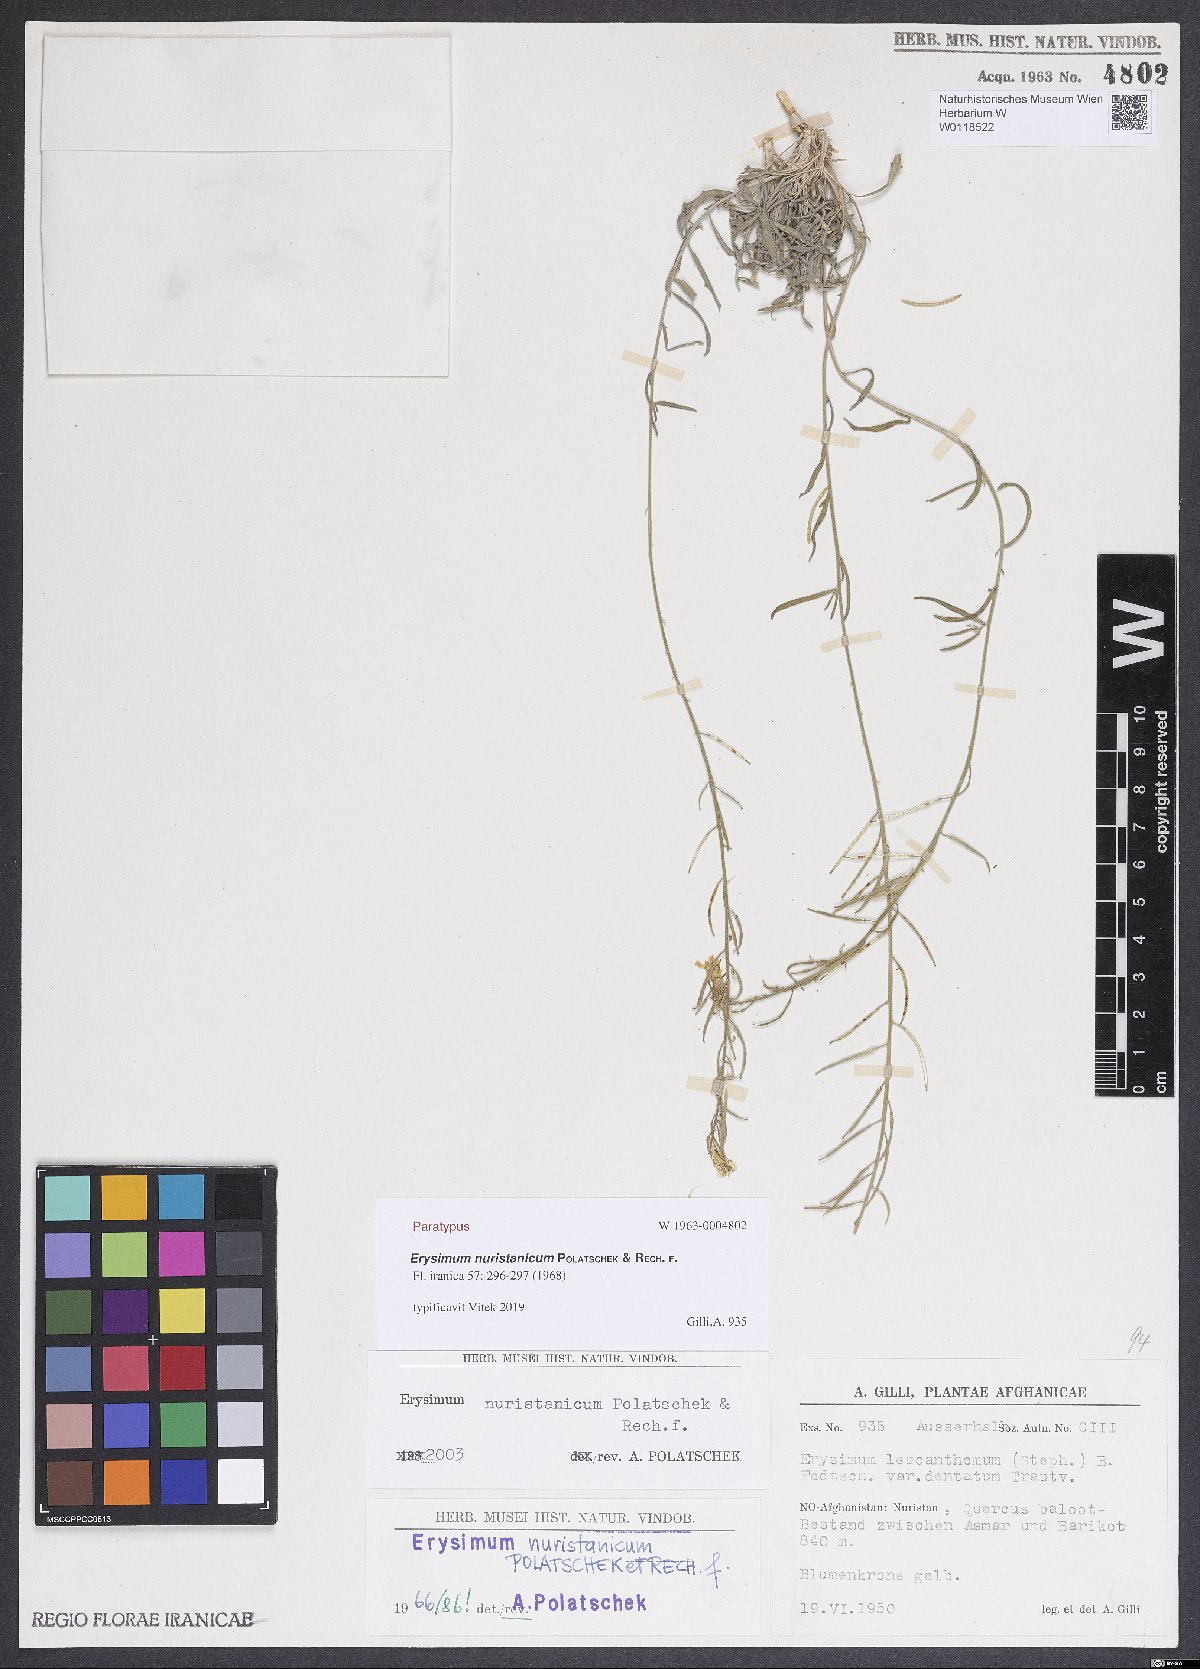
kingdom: Plantae
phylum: Tracheophyta
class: Magnoliopsida
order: Brassicales
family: Brassicaceae
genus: Erysimum
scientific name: Erysimum nuristanicum
